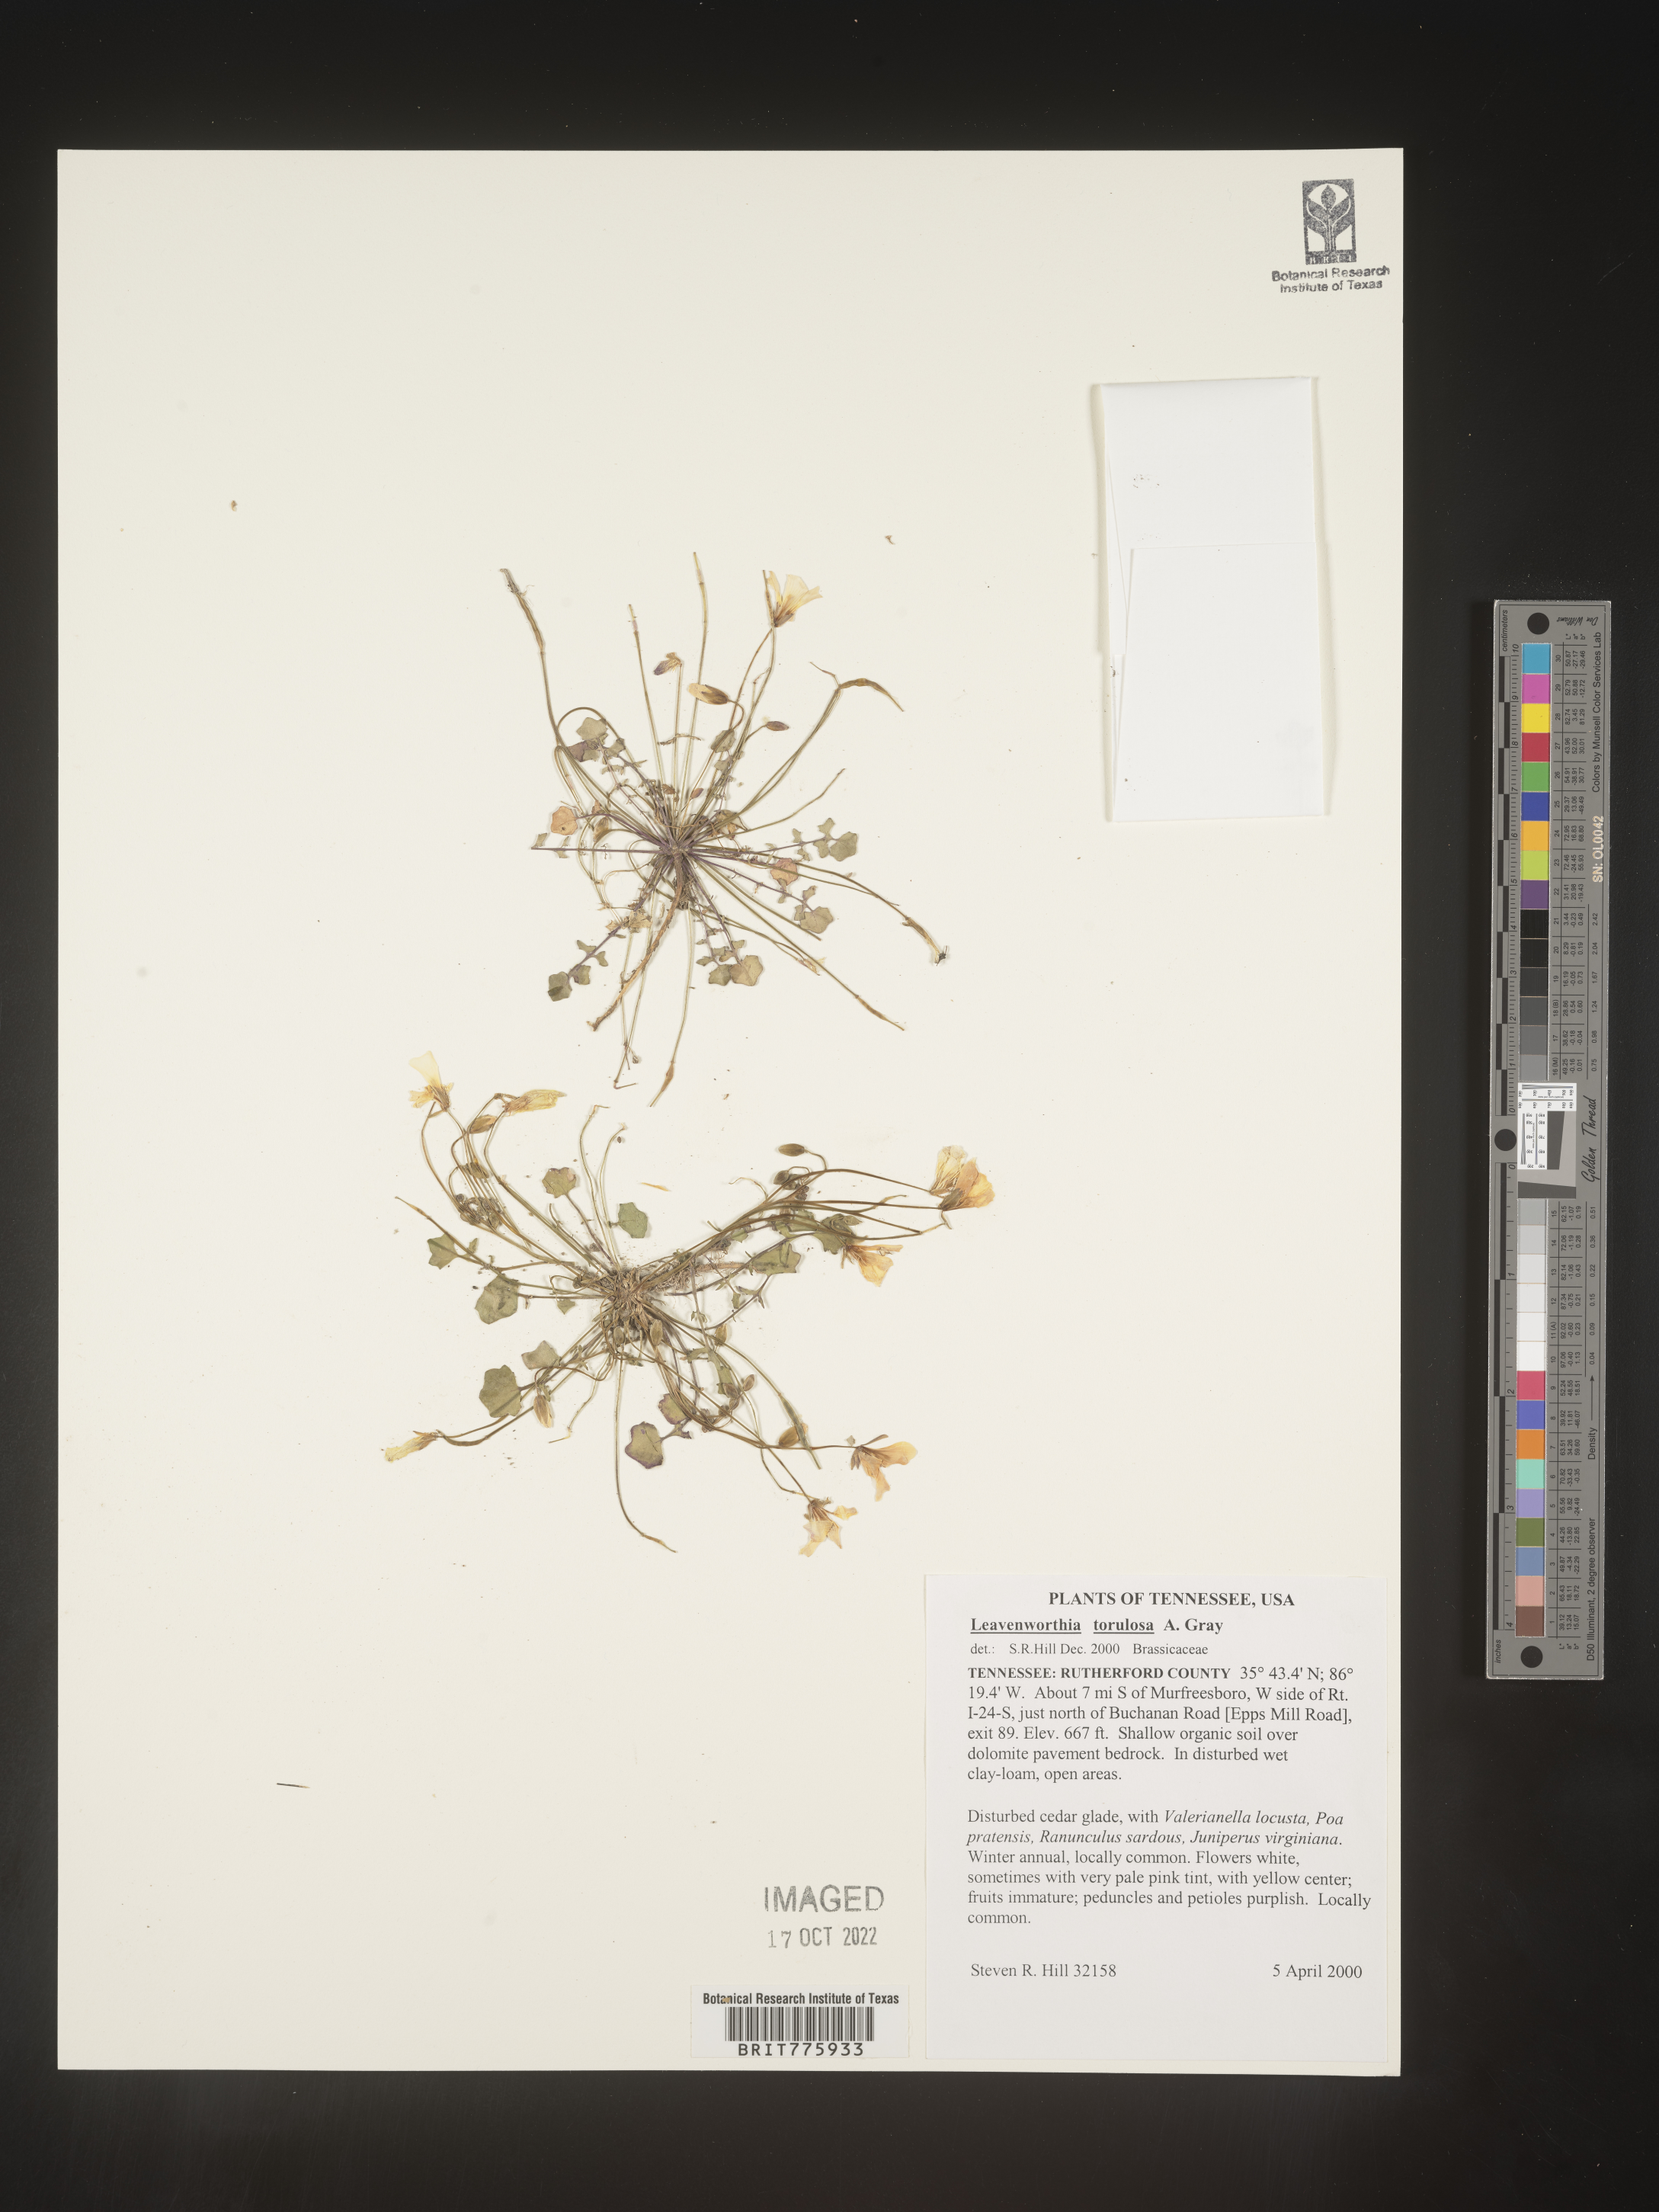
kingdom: Plantae
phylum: Tracheophyta
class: Magnoliopsida
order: Brassicales
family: Brassicaceae
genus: Leavenworthia
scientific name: Leavenworthia
